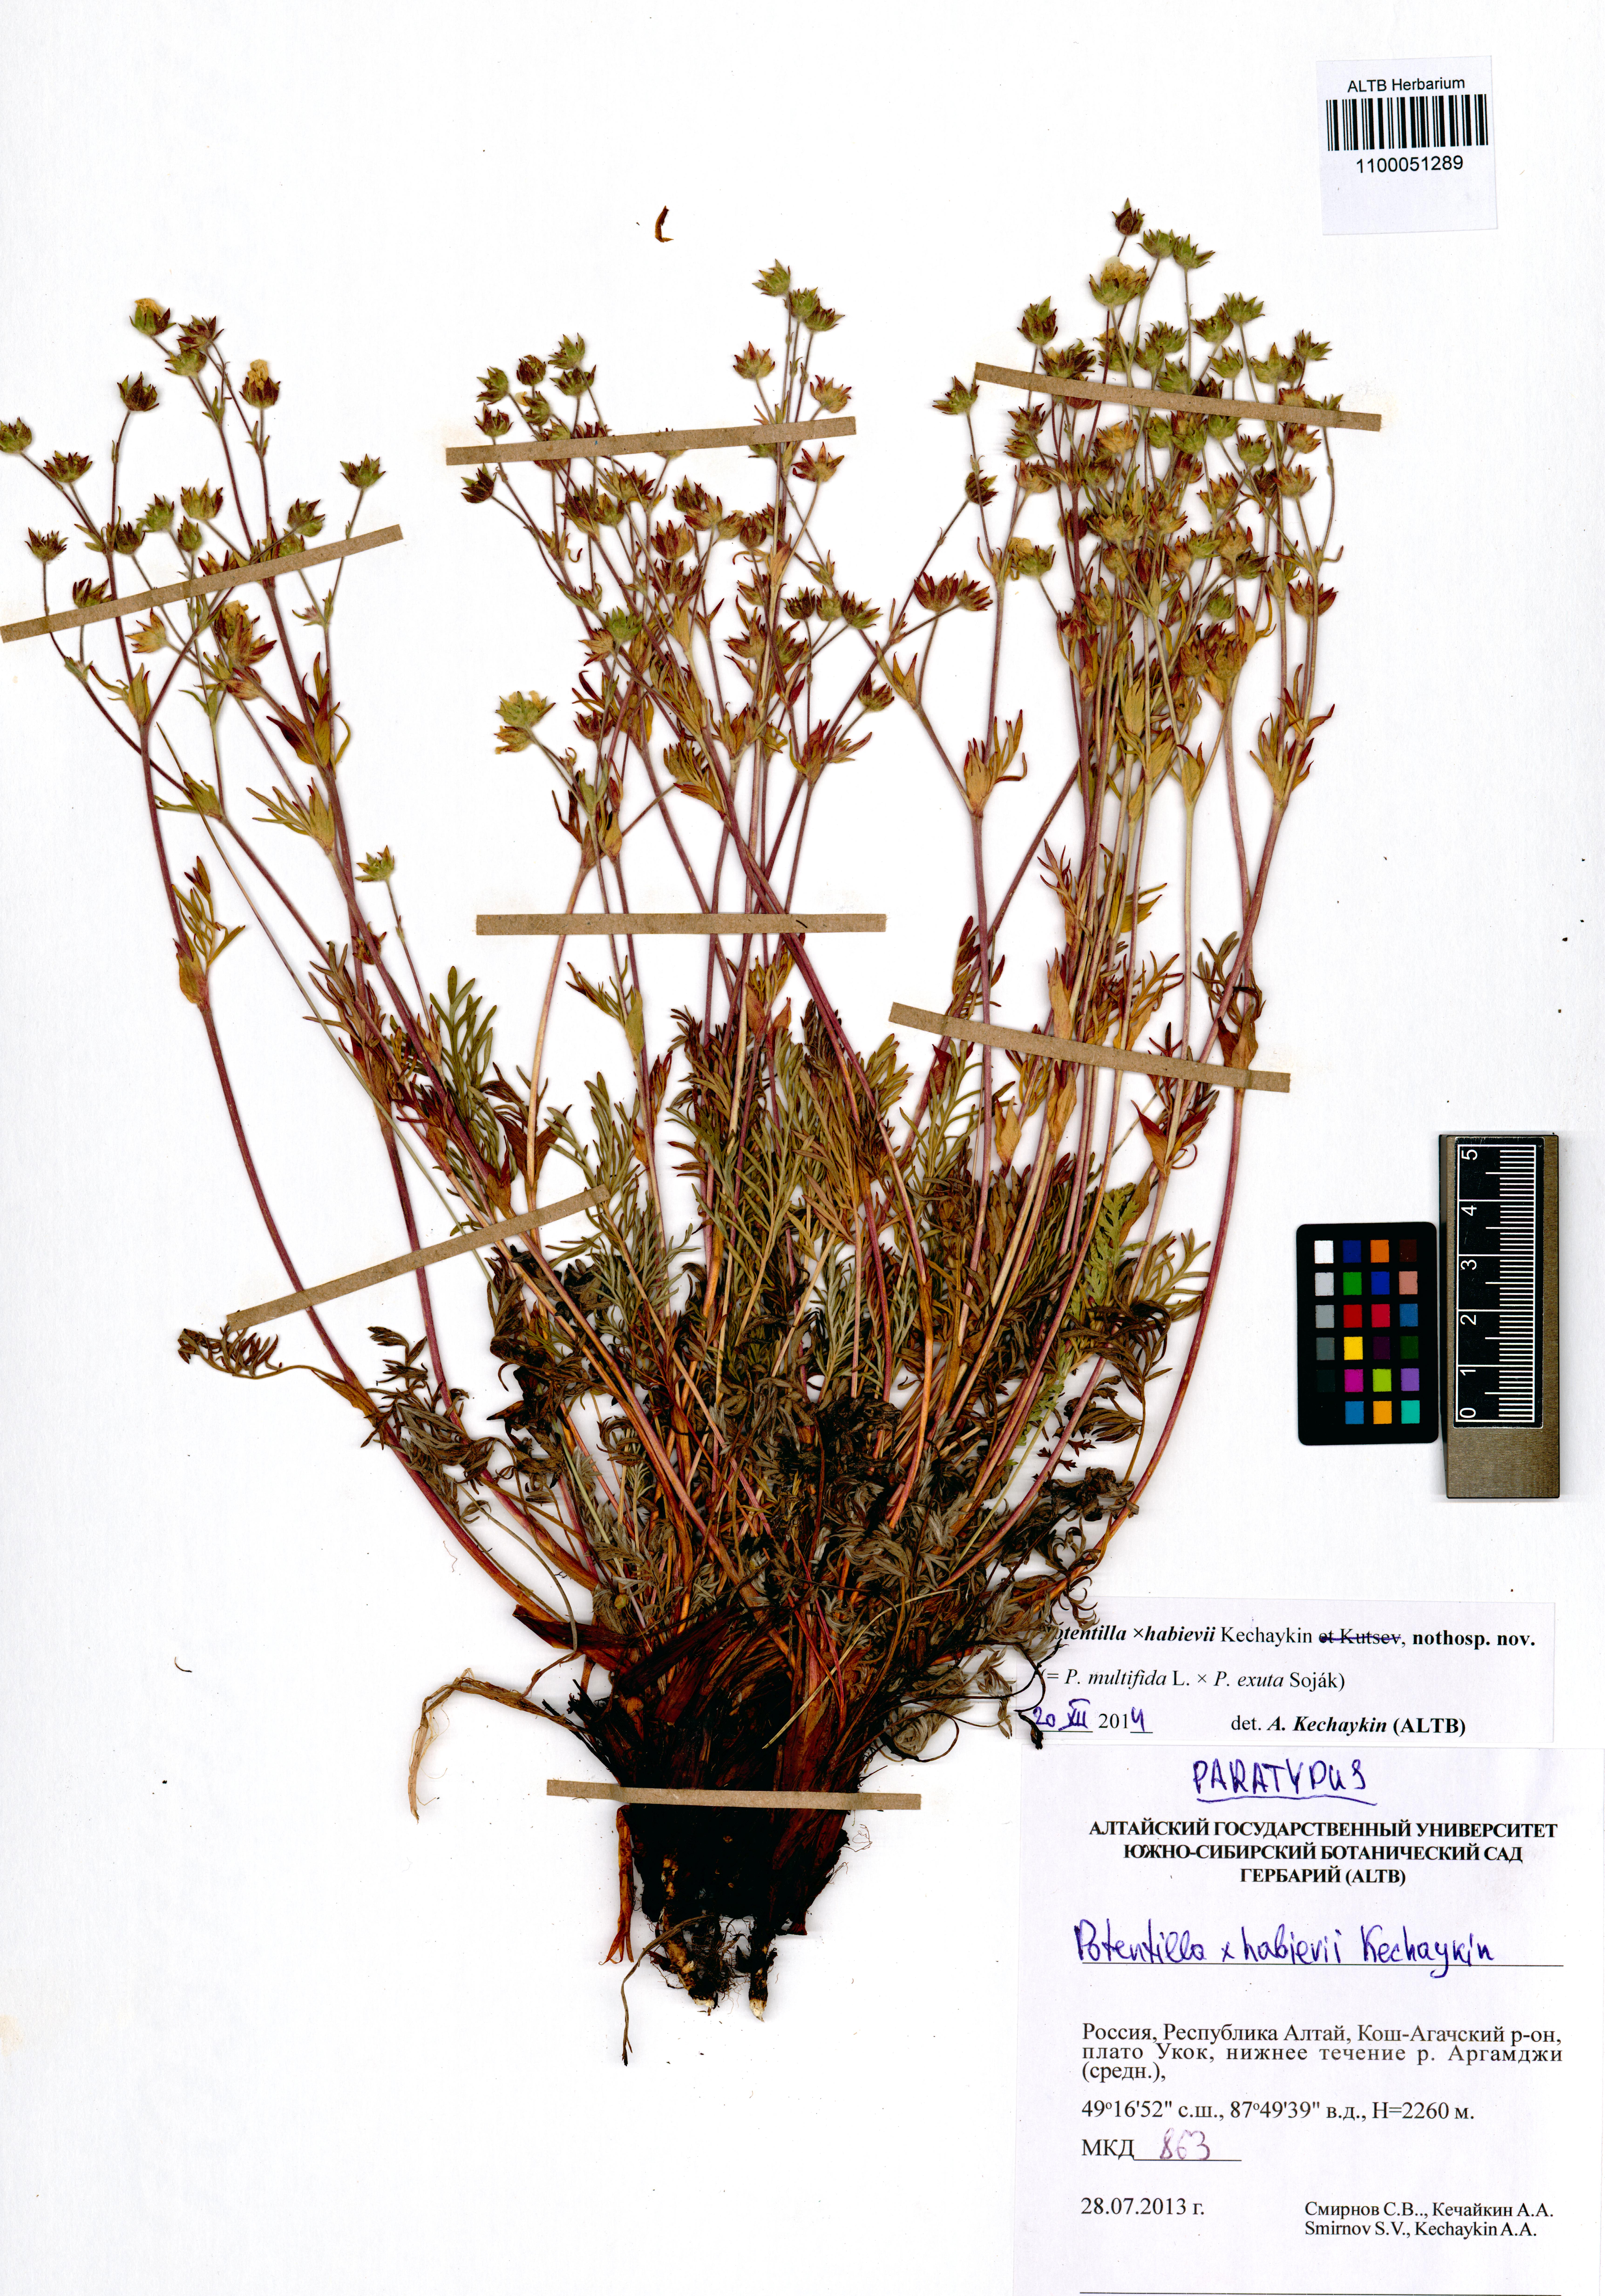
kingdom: Plantae
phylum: Tracheophyta
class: Magnoliopsida
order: Rosales
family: Rosaceae
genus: Potentilla
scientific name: Potentilla habievii
